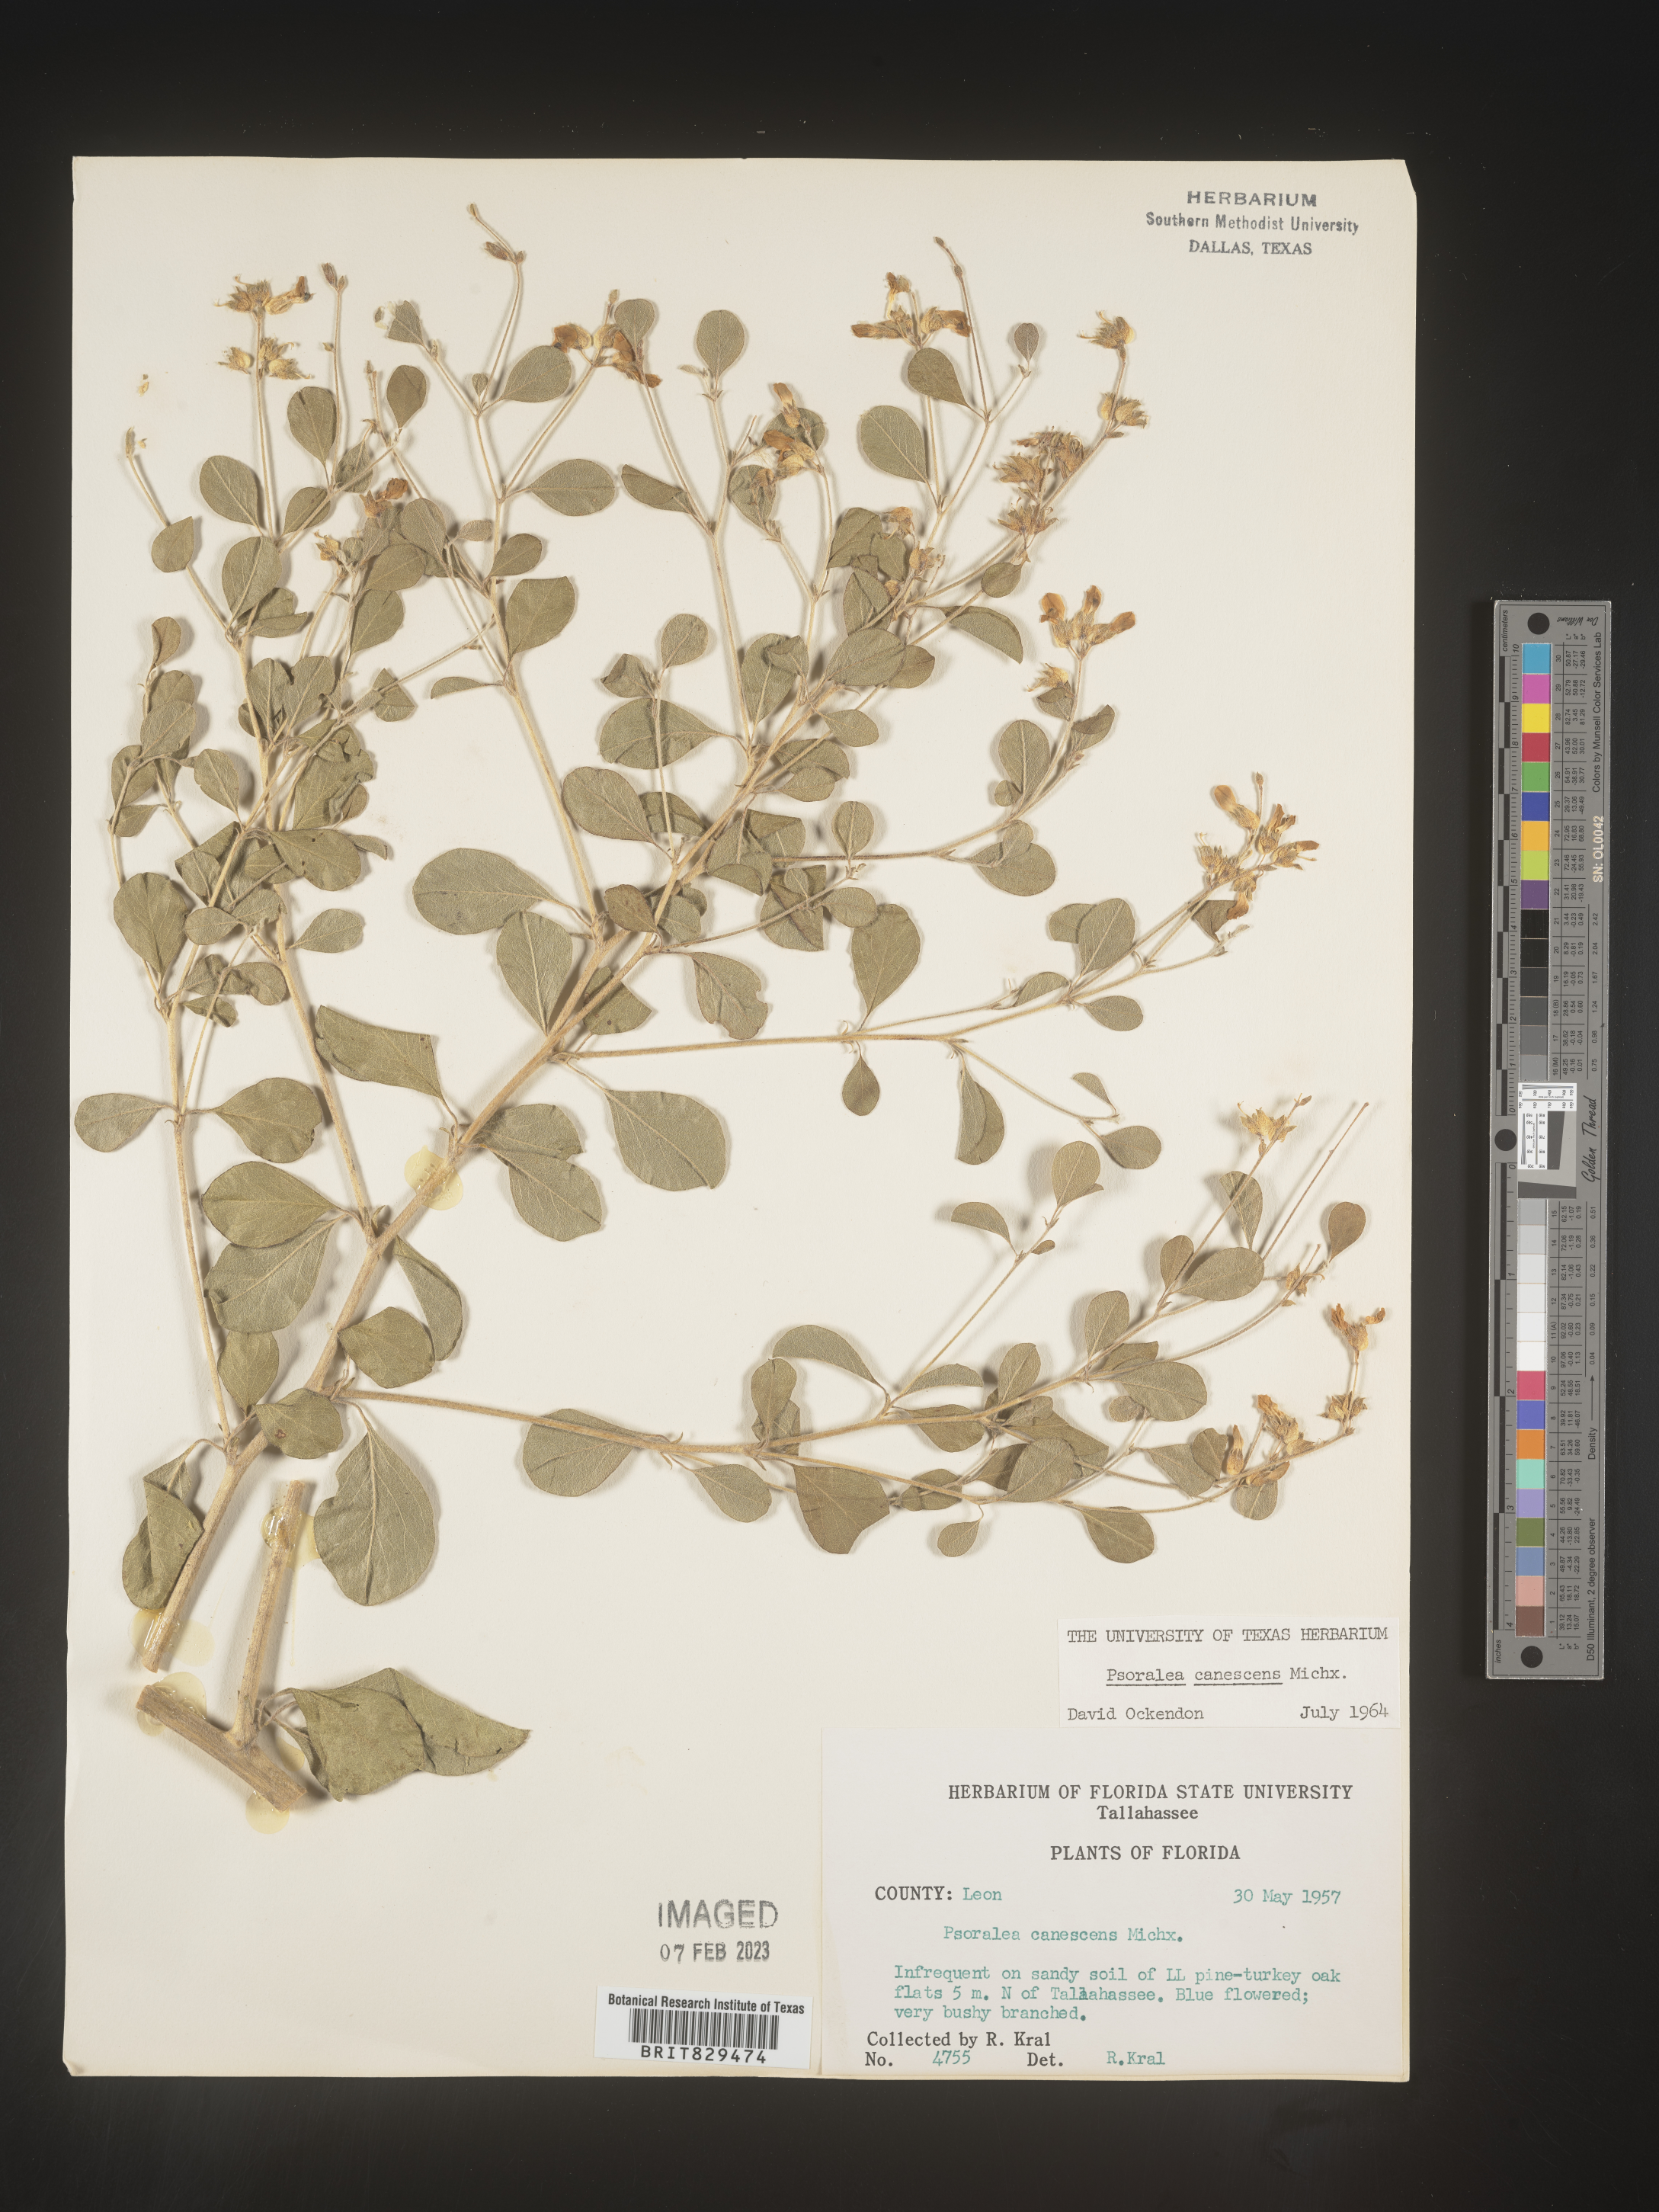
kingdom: Plantae
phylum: Tracheophyta
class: Magnoliopsida
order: Fabales
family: Fabaceae
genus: Pediomelum
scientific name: Pediomelum canescens
